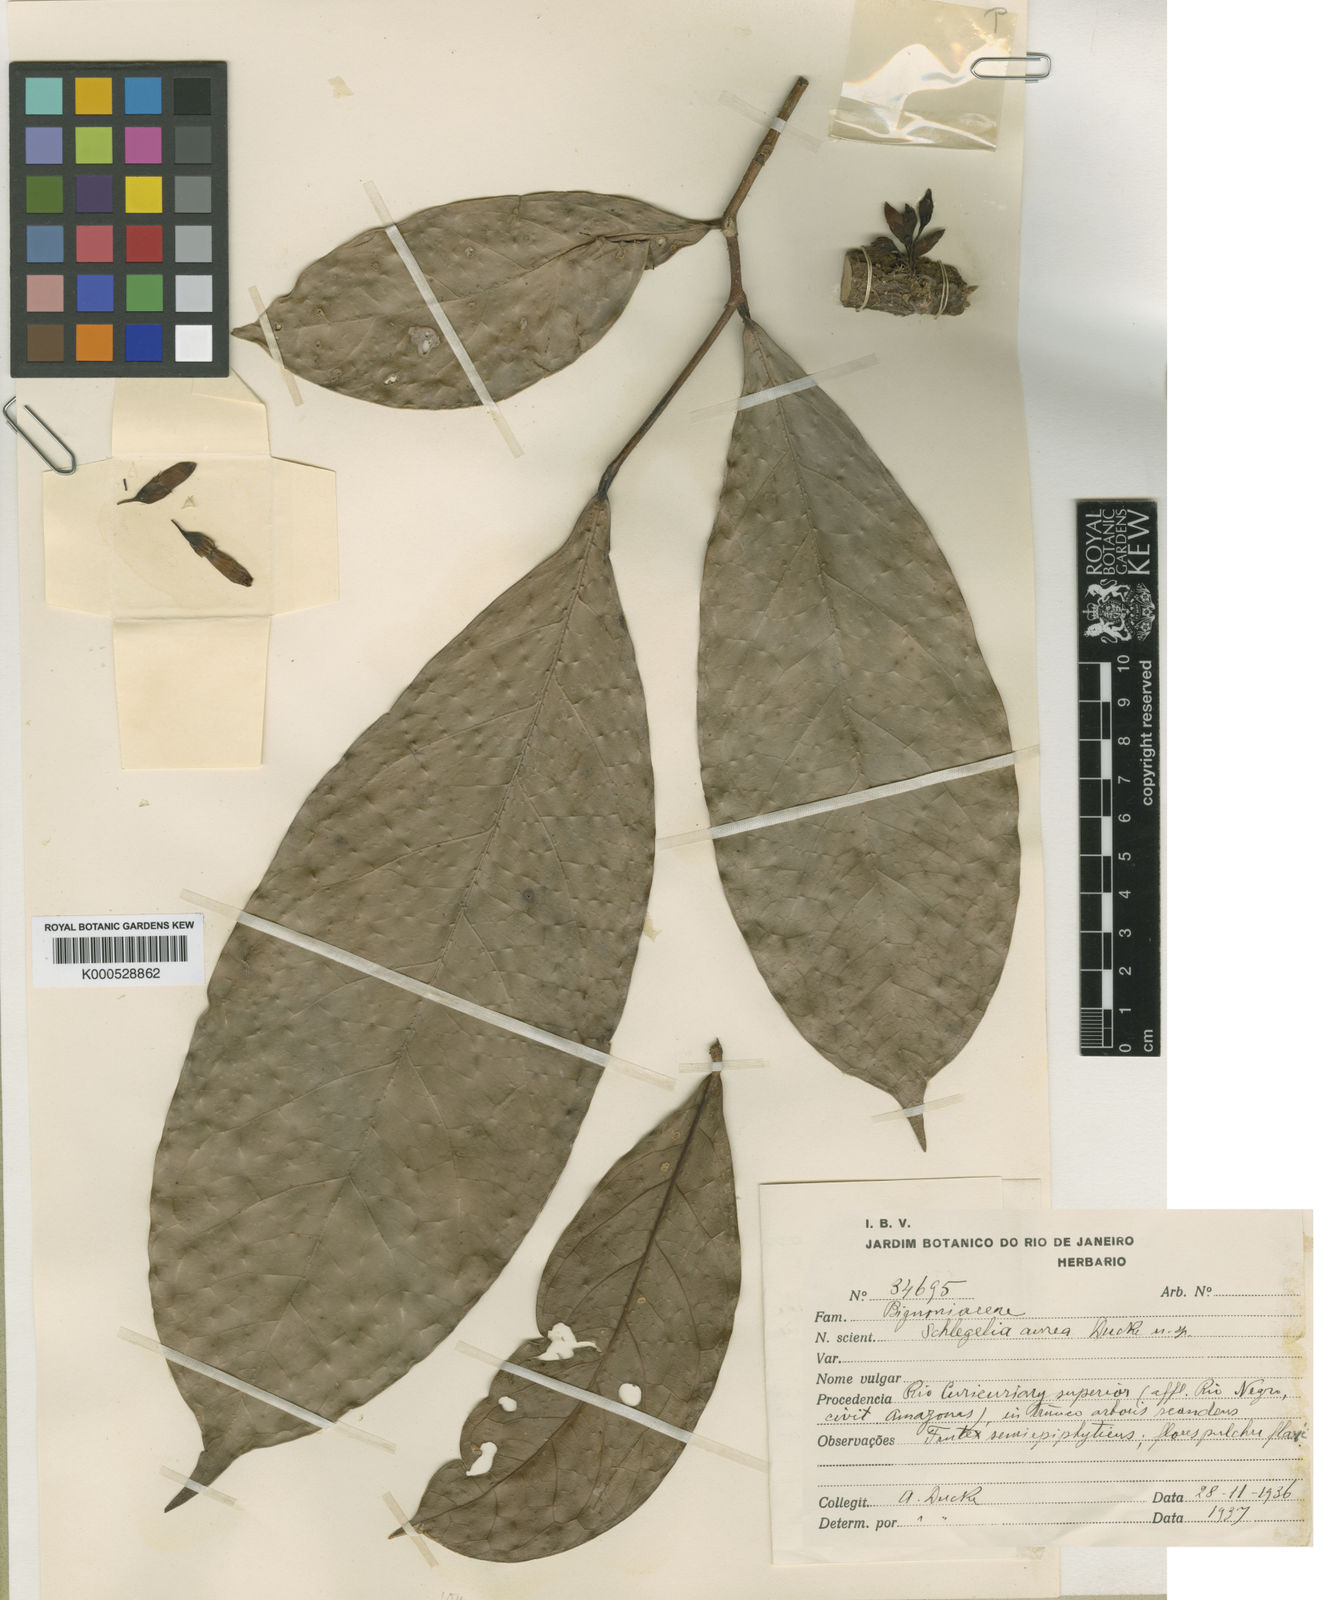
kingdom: Plantae
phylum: Tracheophyta
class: Magnoliopsida
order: Lamiales
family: Schlegeliaceae
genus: Schlegelia
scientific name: Schlegelia aurea
